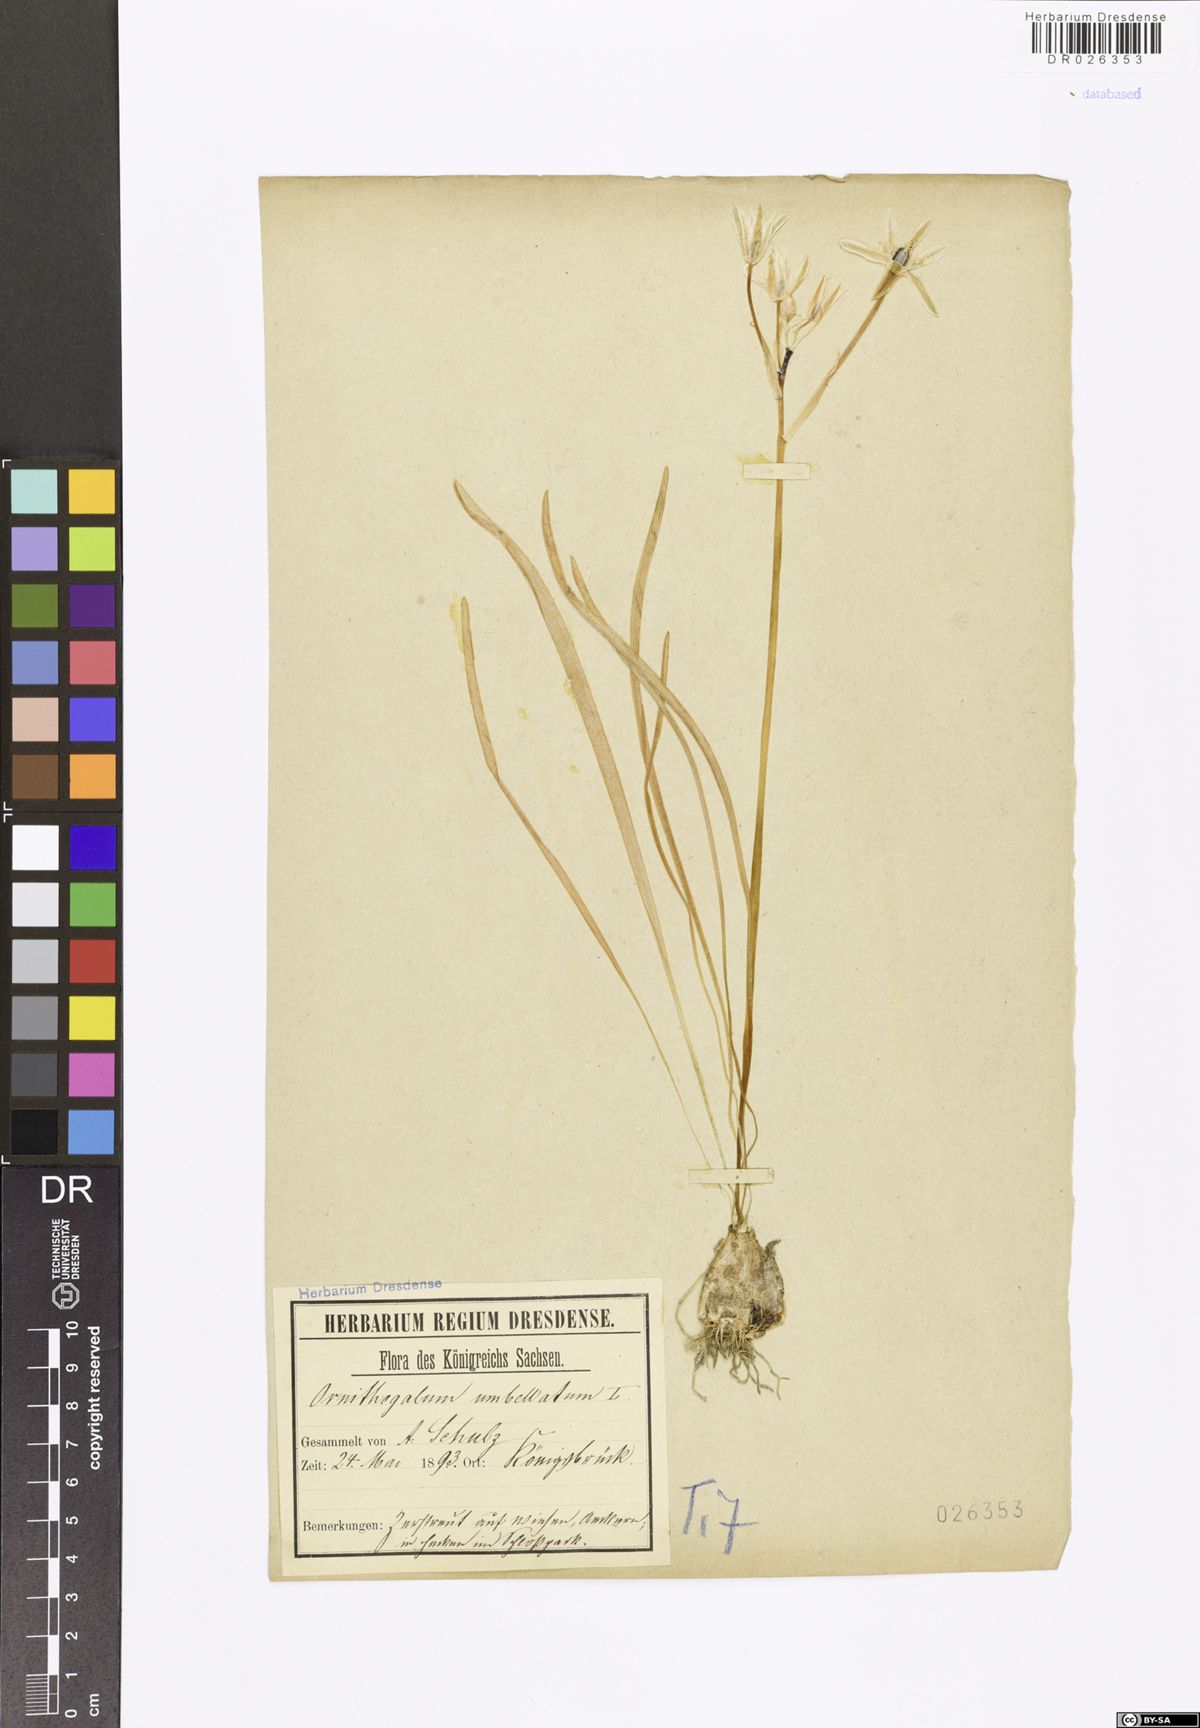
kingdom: Plantae
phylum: Tracheophyta
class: Liliopsida
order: Asparagales
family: Asparagaceae
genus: Ornithogalum
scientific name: Ornithogalum umbellatum
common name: Garden star-of-bethlehem
